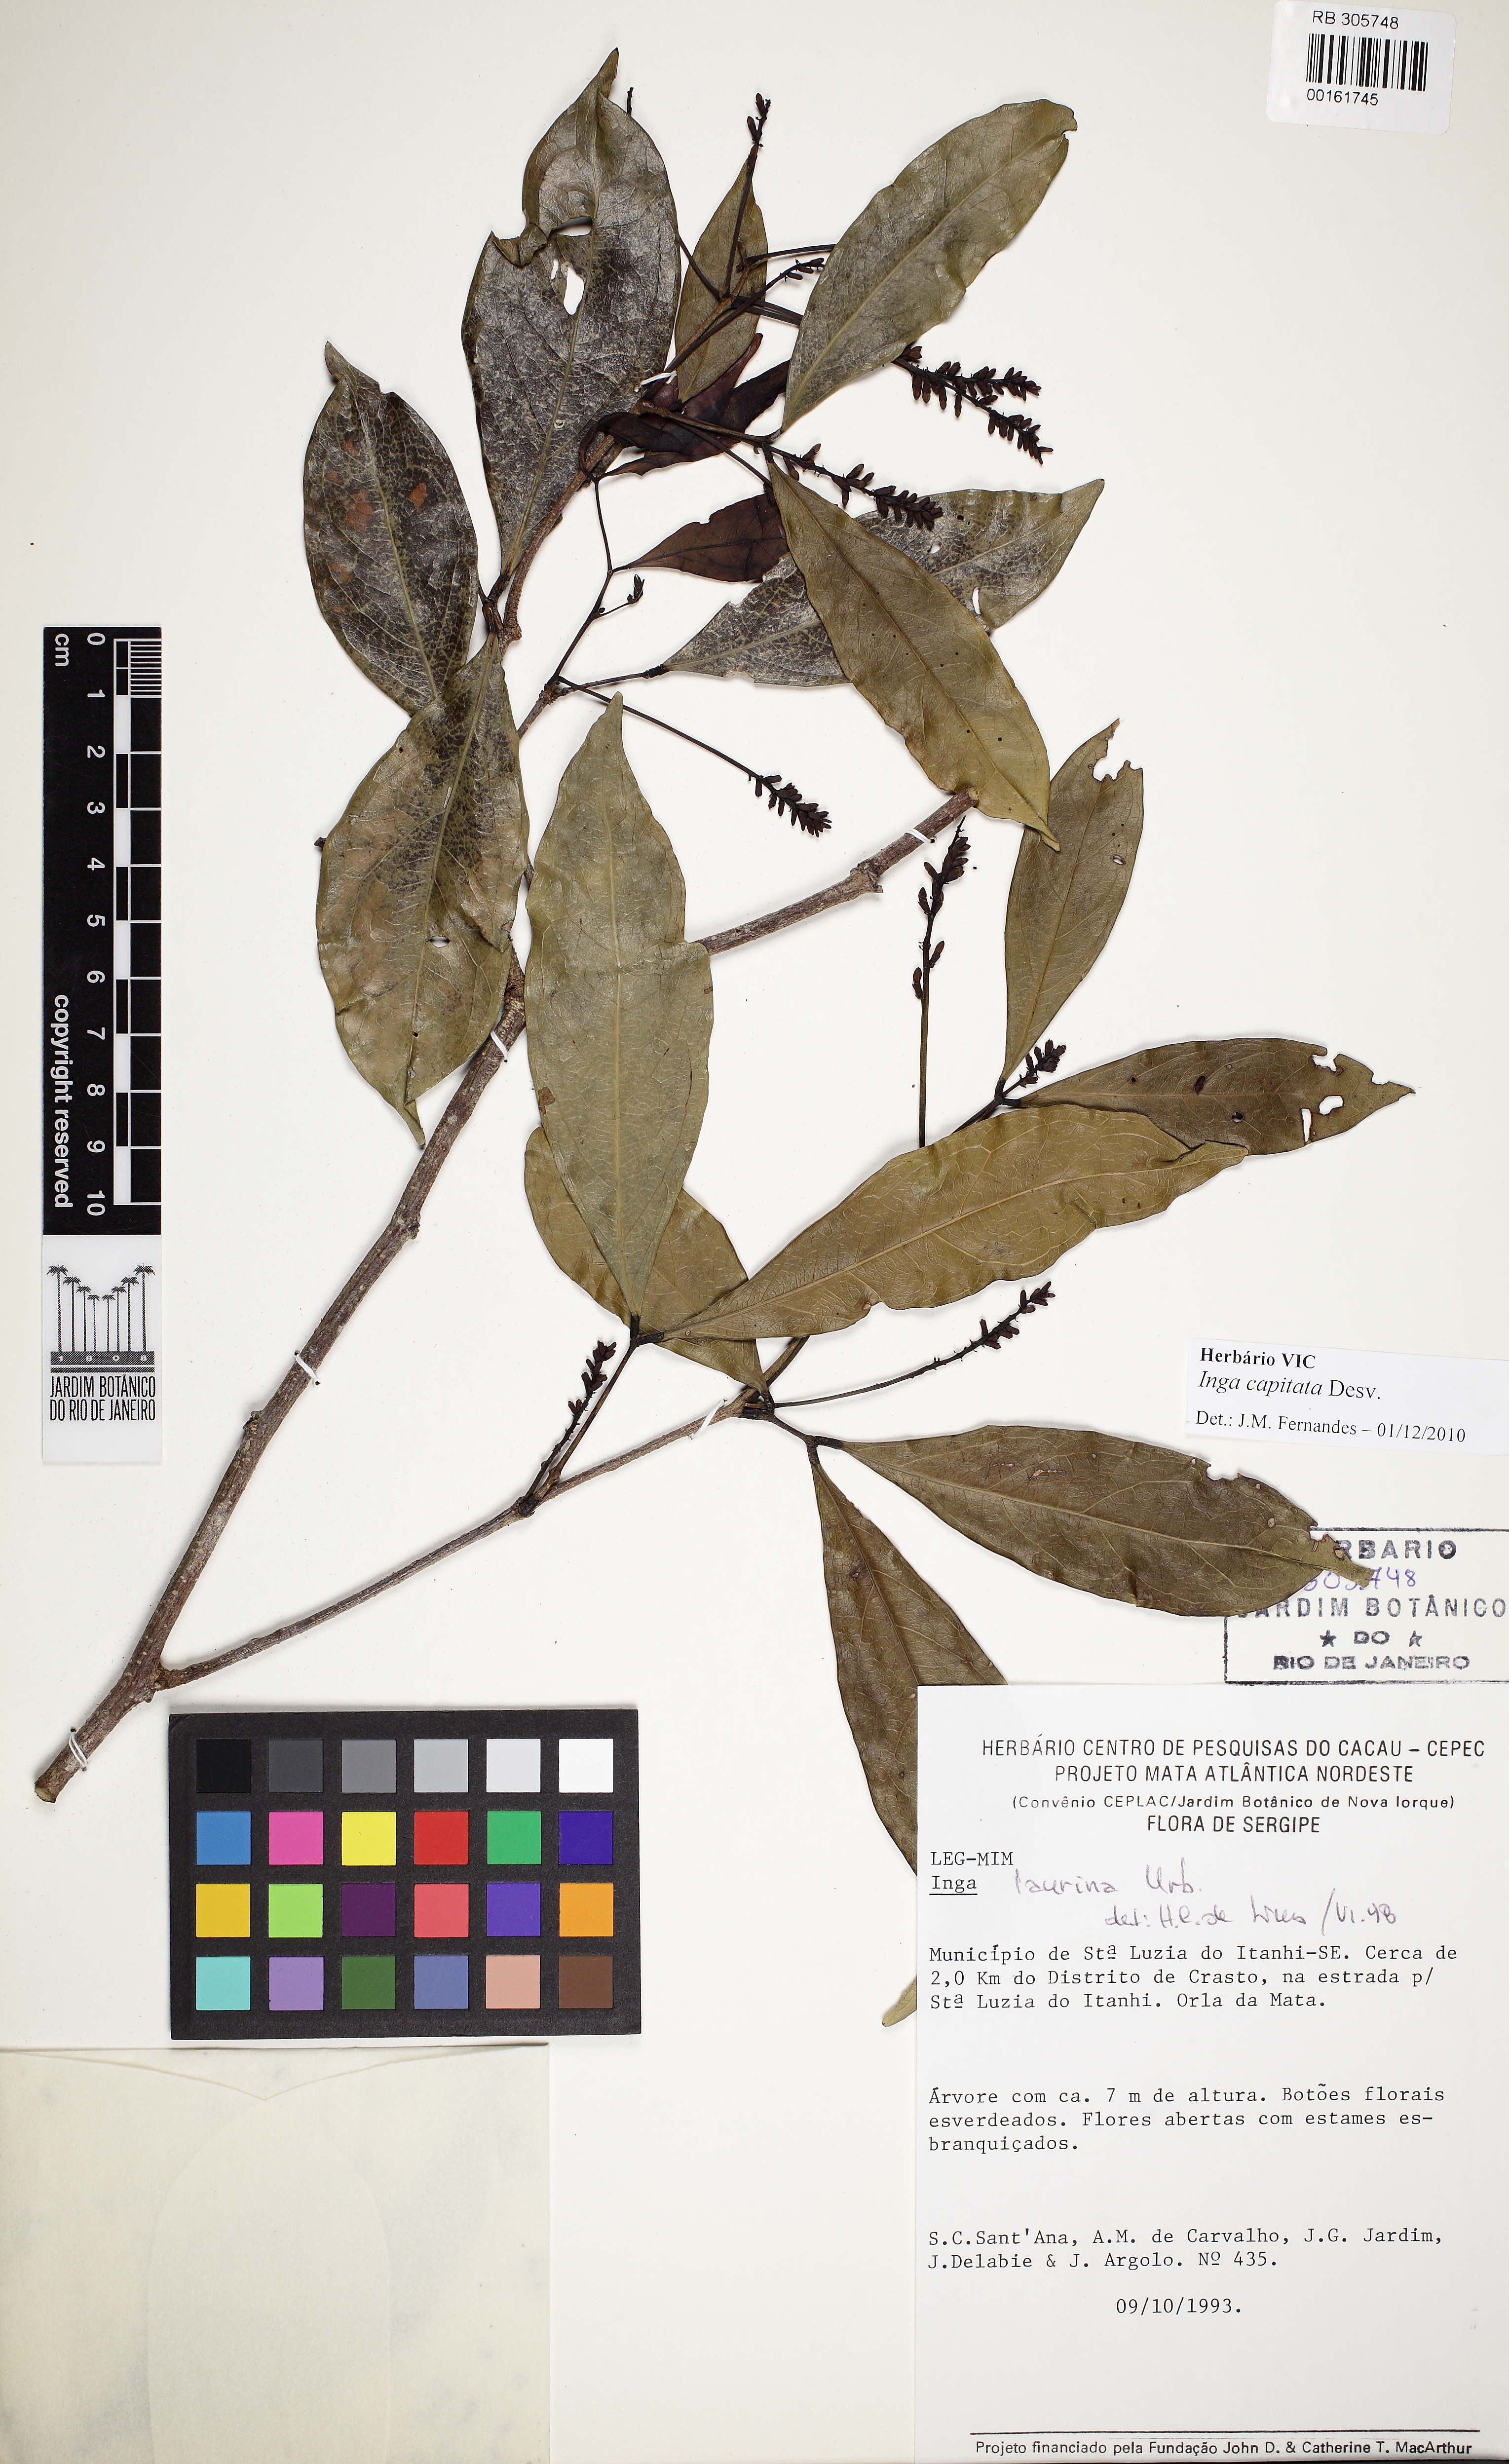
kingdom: Plantae
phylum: Tracheophyta
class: Magnoliopsida
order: Fabales
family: Fabaceae
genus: Inga
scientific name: Inga capitata
